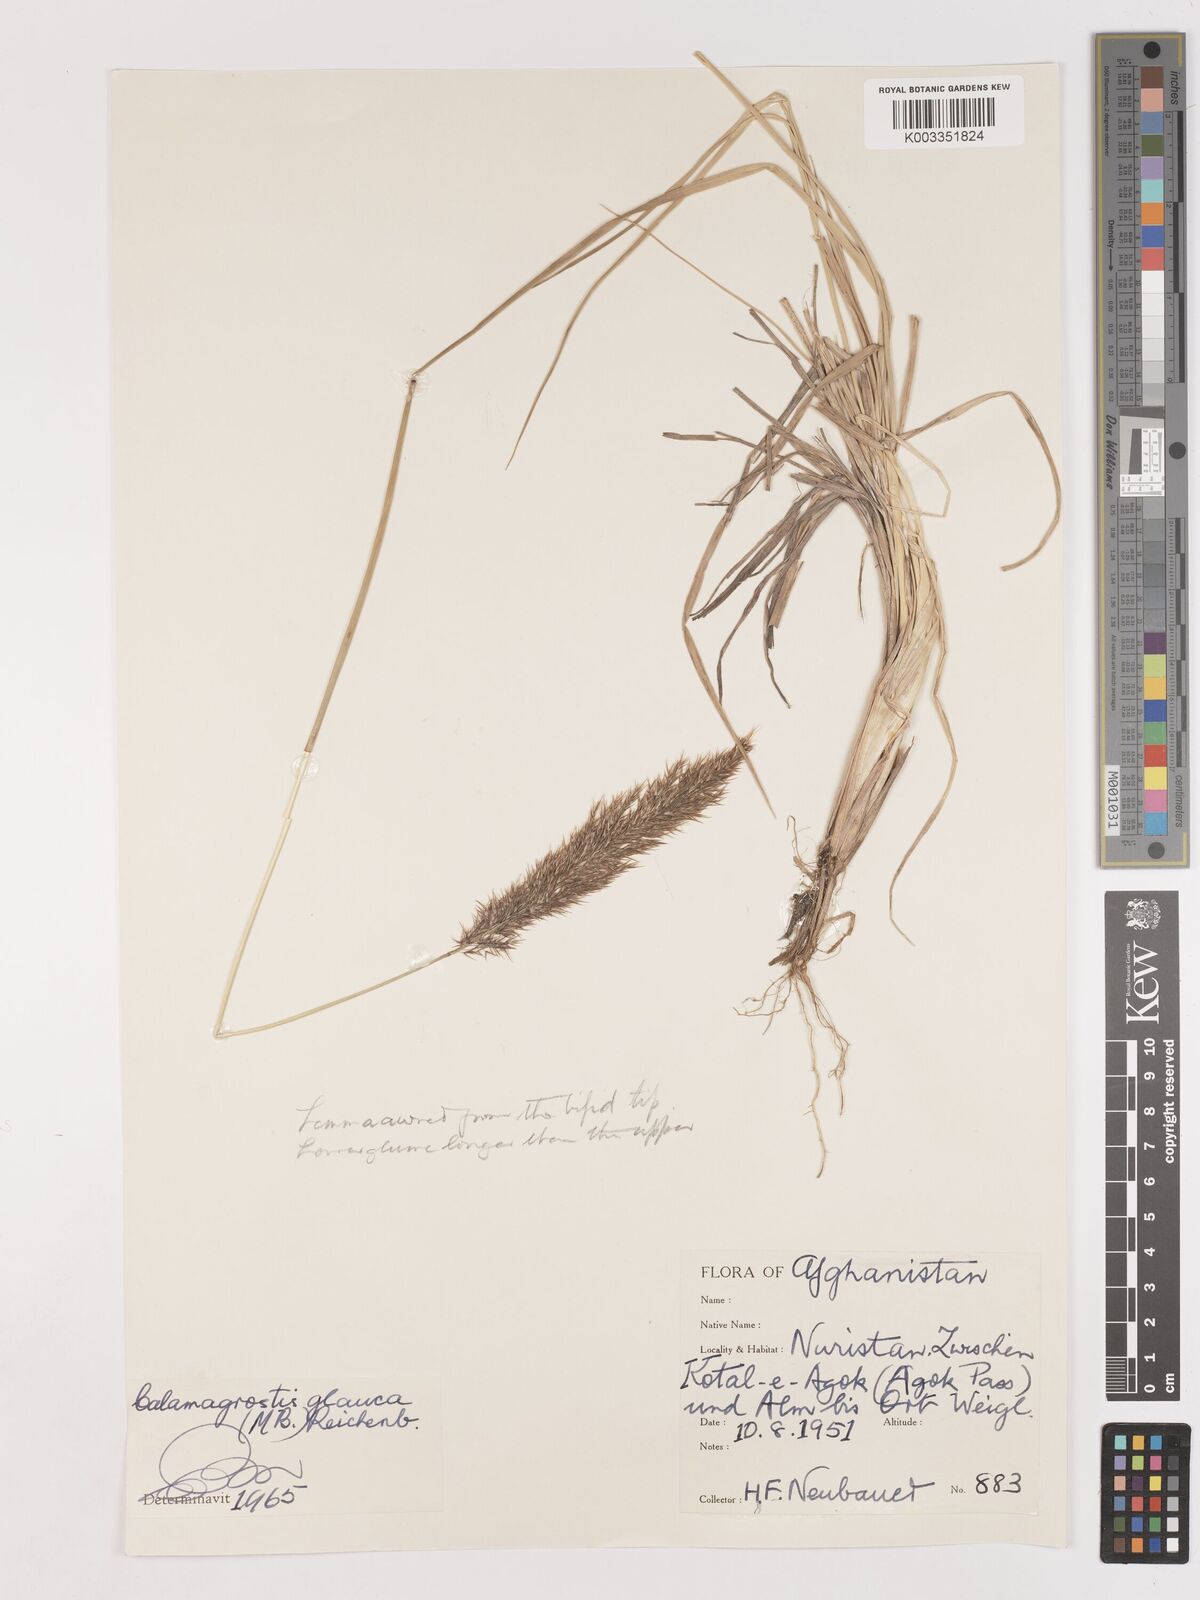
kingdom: Plantae
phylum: Tracheophyta
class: Liliopsida
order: Poales
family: Poaceae
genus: Calamagrostis
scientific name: Calamagrostis pseudophragmites
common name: Coastal small-reed
